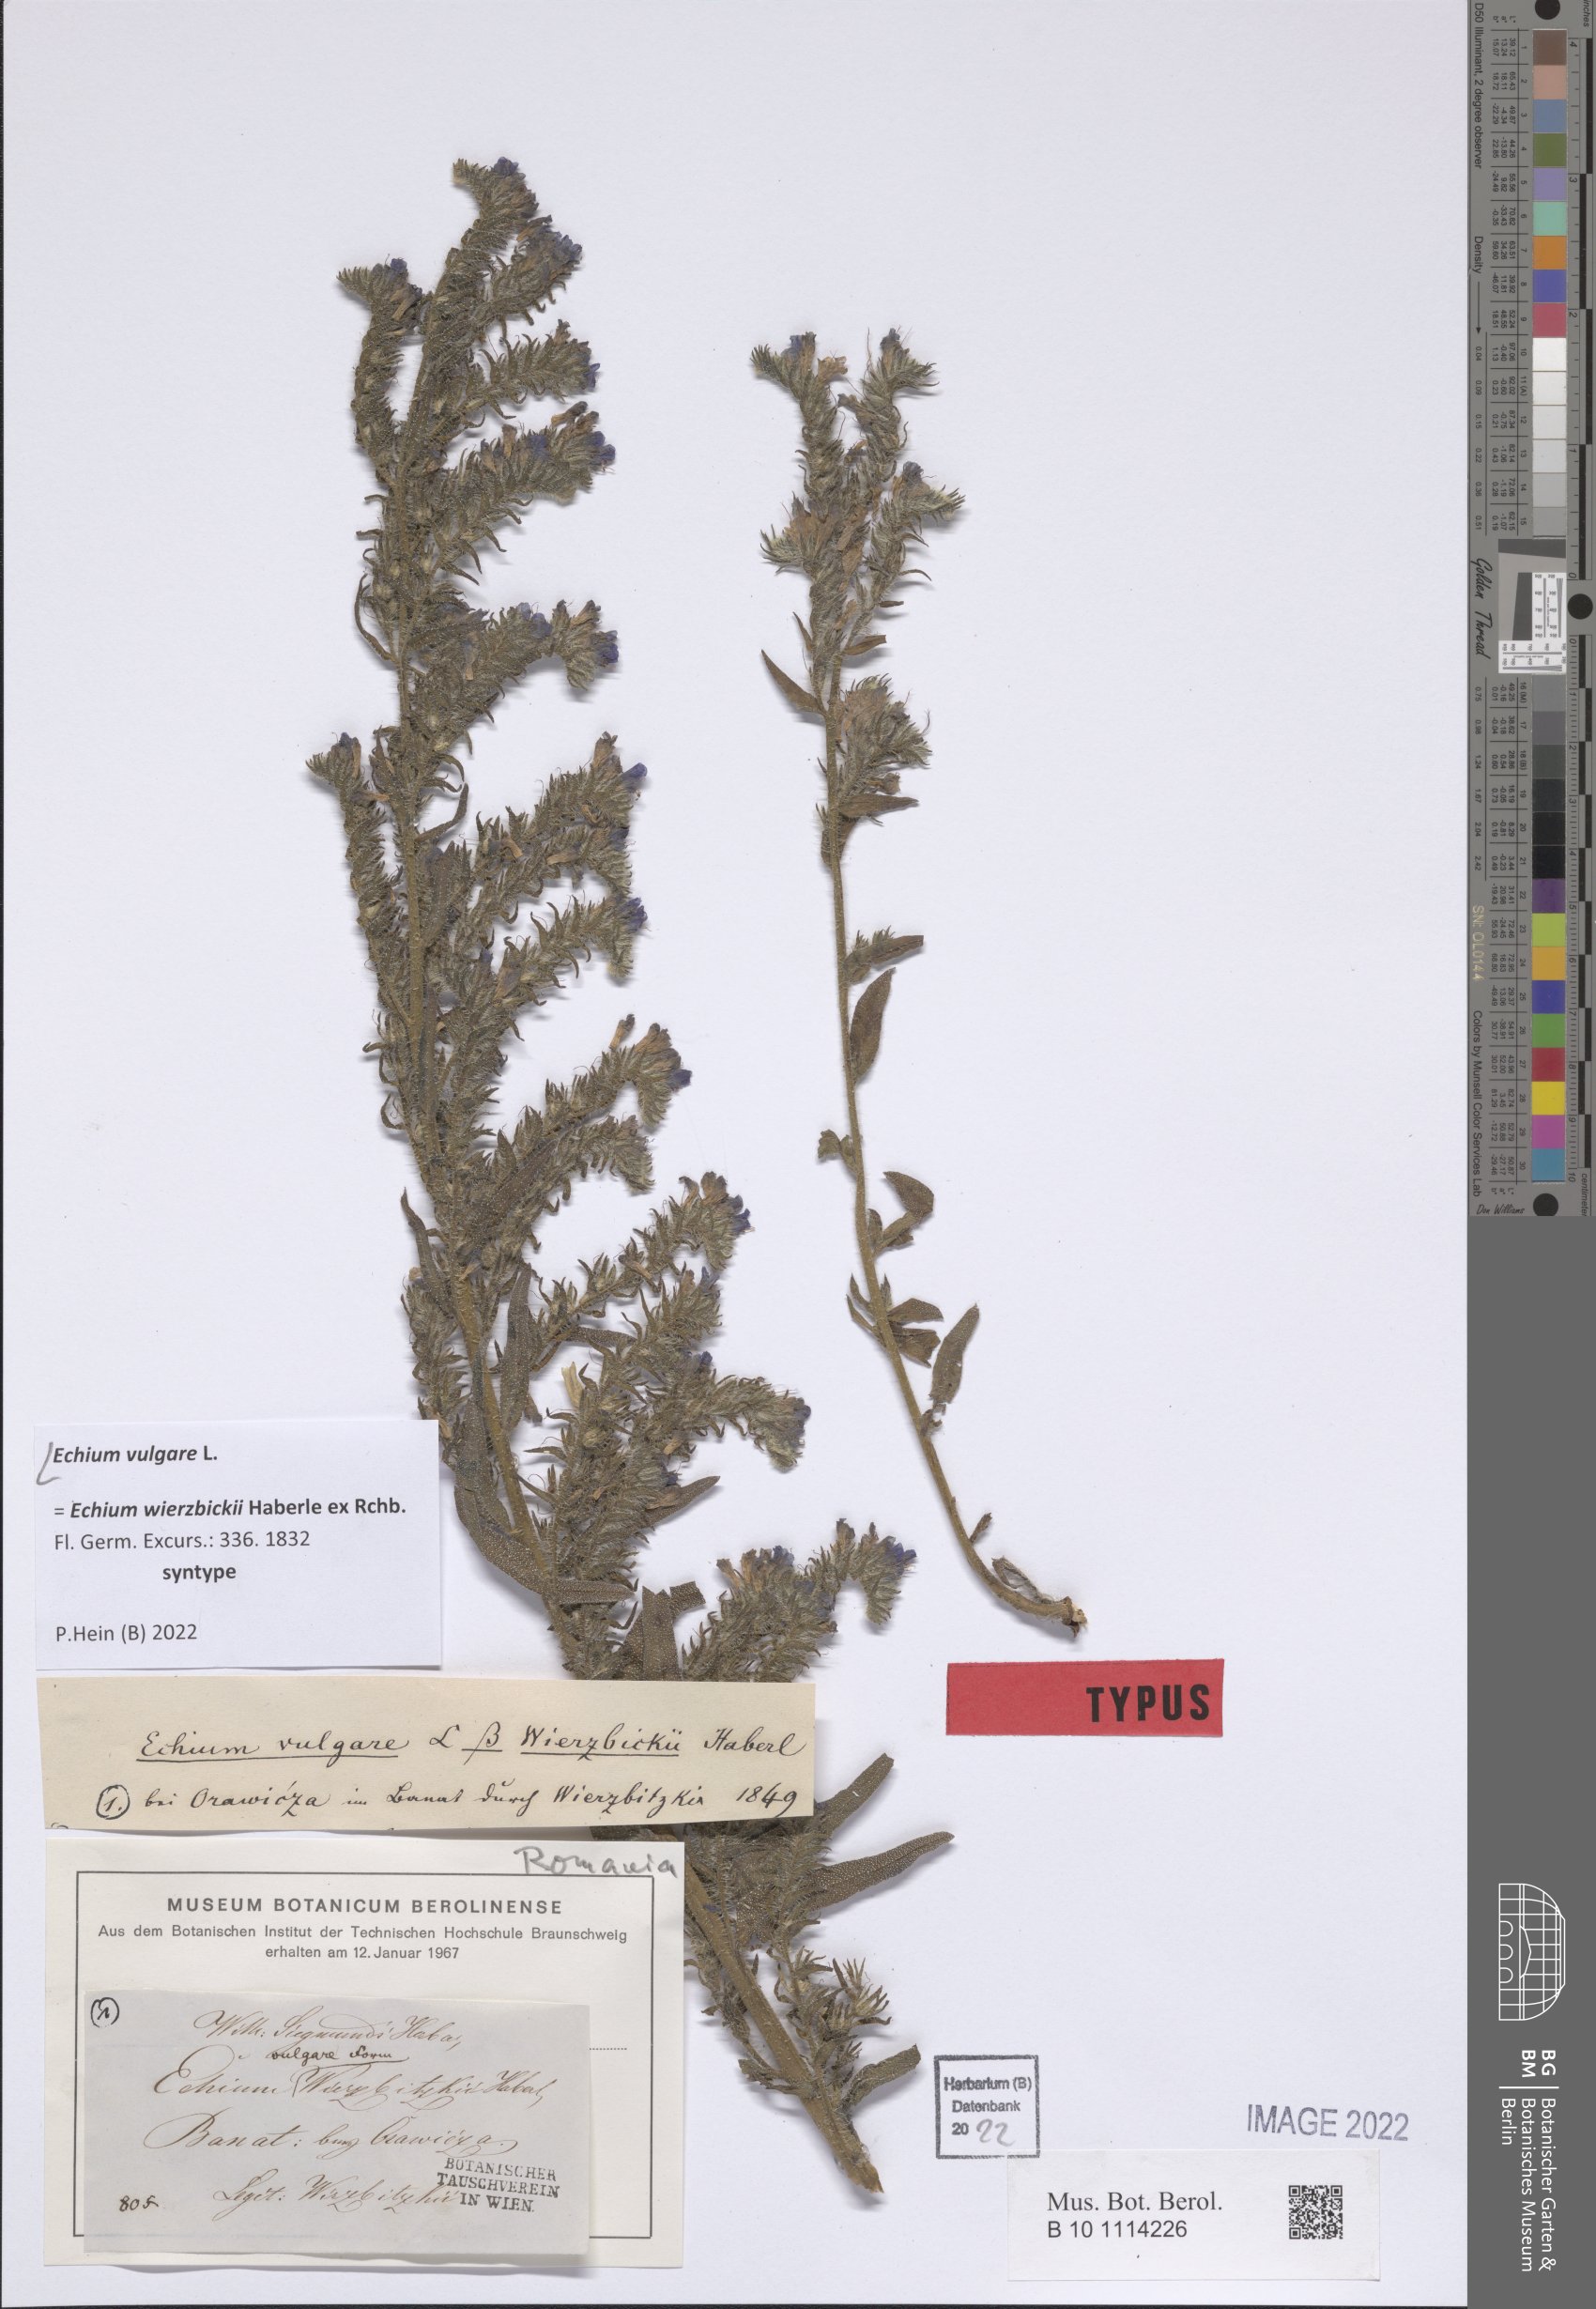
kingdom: Plantae
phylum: Tracheophyta
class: Magnoliopsida
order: Boraginales
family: Boraginaceae
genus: Echium
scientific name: Echium vulgare
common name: Common viper's bugloss
